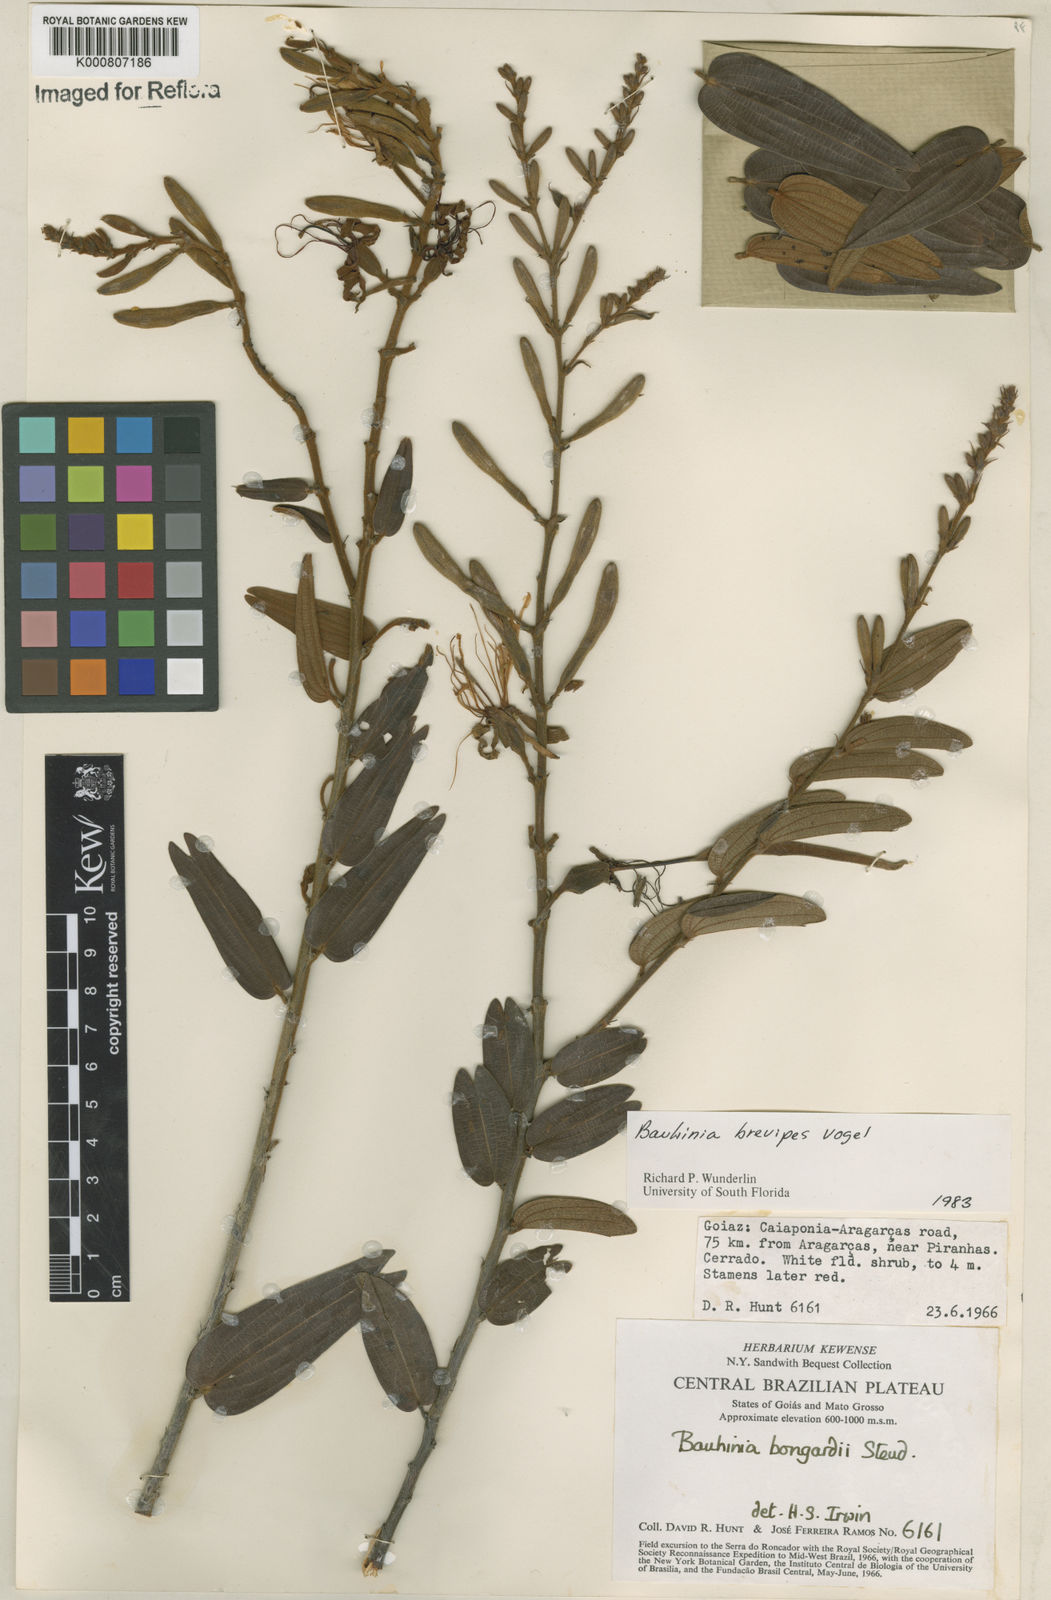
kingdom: Plantae
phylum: Tracheophyta
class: Magnoliopsida
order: Fabales
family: Fabaceae
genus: Bauhinia
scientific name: Bauhinia brevipes
